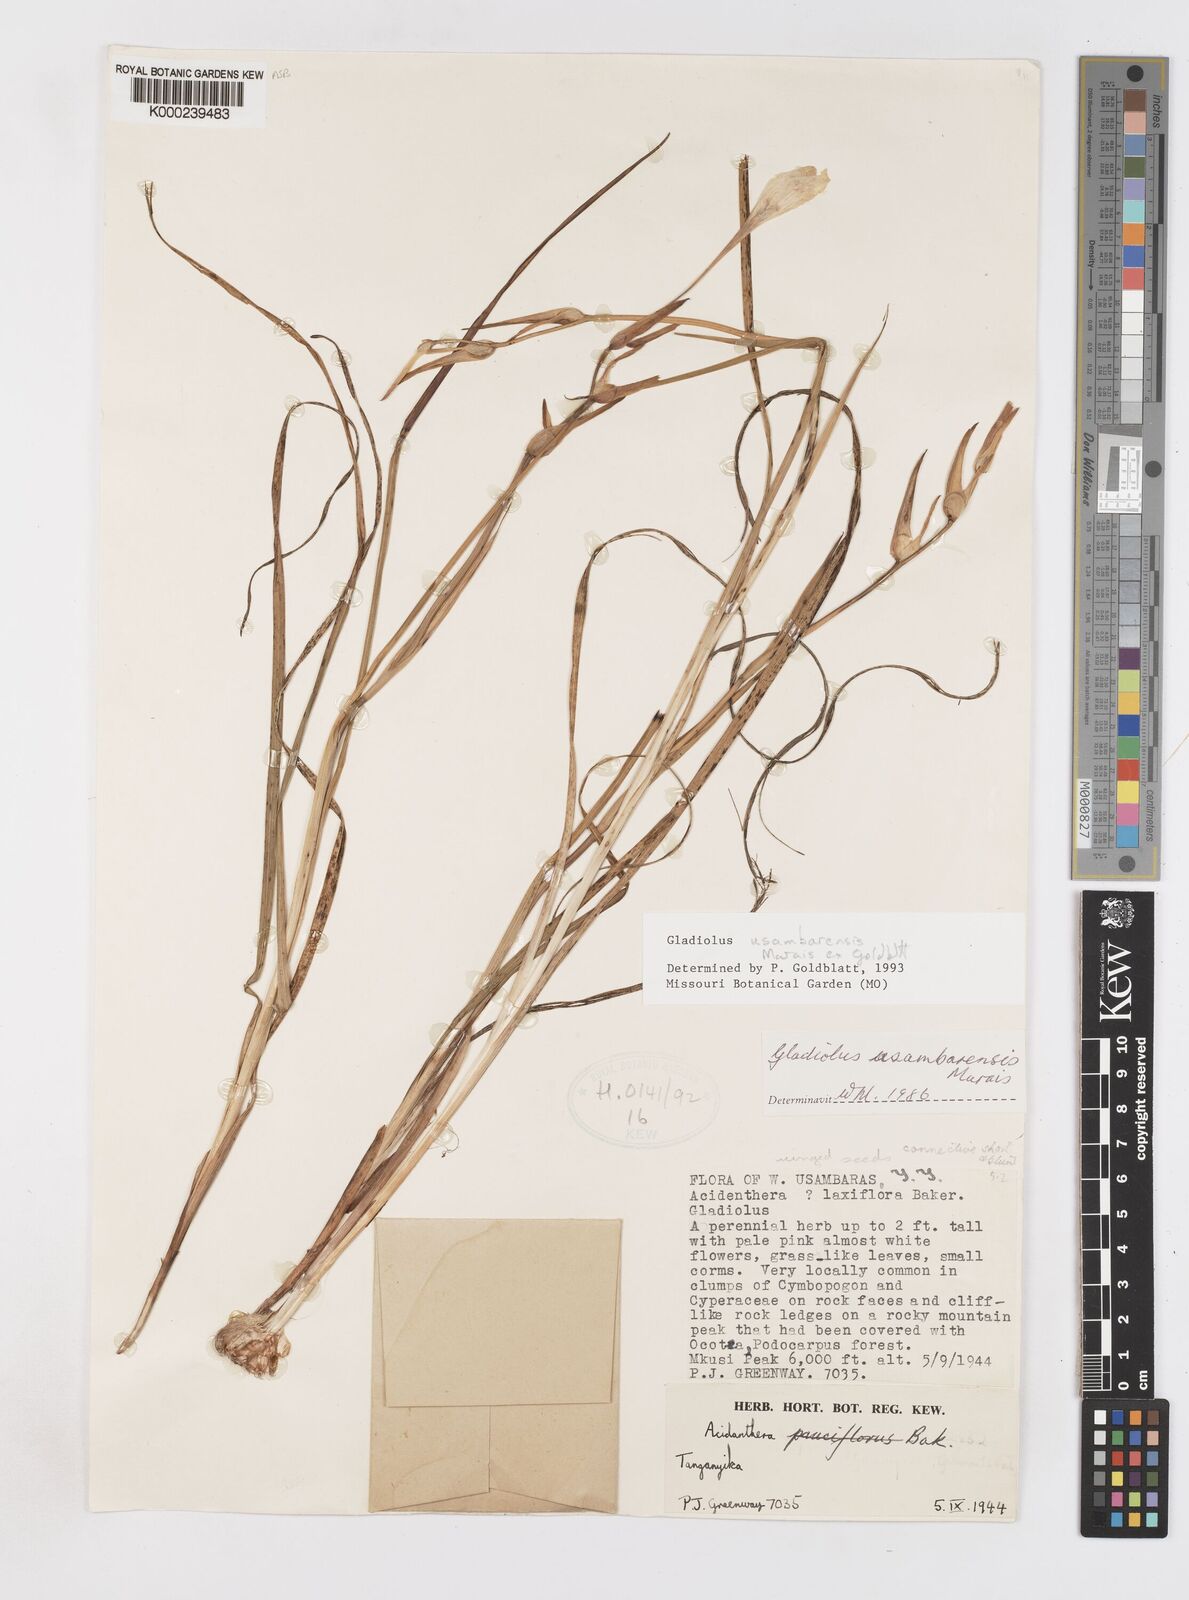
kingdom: Plantae
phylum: Tracheophyta
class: Liliopsida
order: Asparagales
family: Iridaceae
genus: Gladiolus
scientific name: Gladiolus usambarensis
